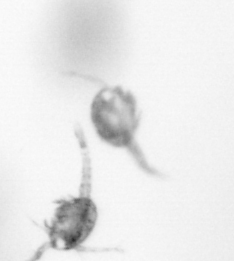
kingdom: Animalia
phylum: Arthropoda
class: Copepoda
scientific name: Copepoda
